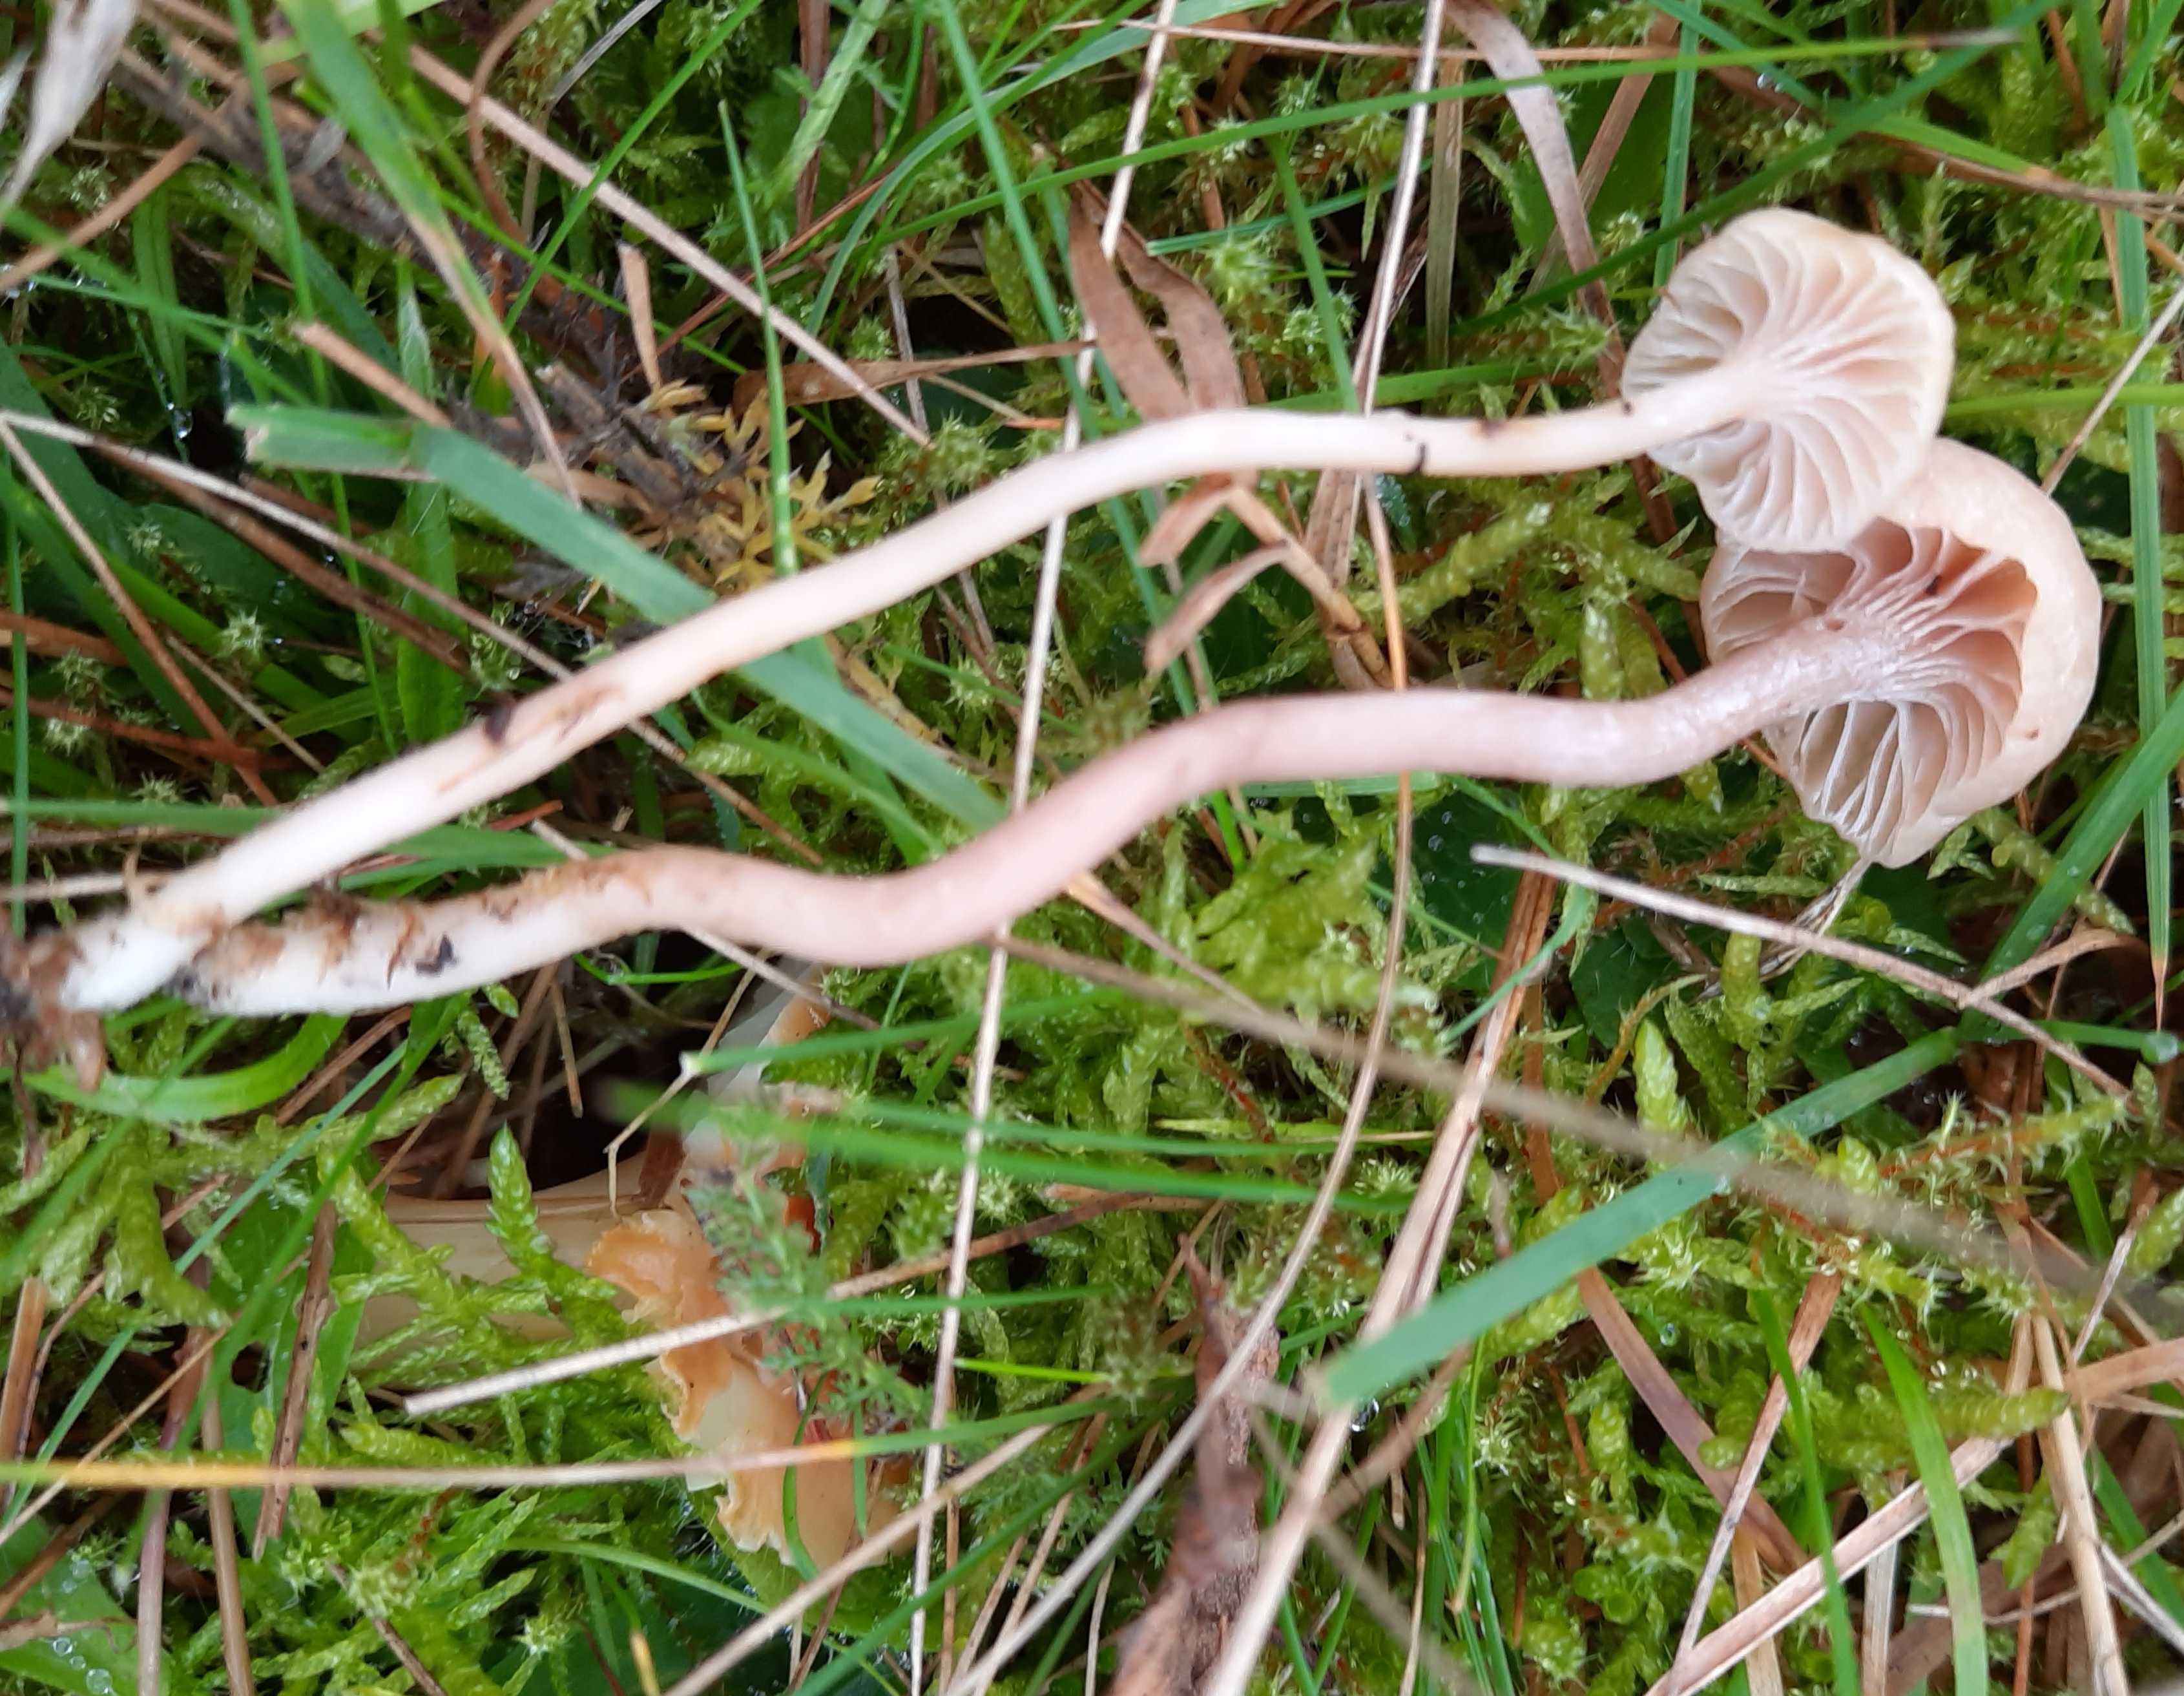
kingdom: Fungi
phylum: Basidiomycota
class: Agaricomycetes
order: Agaricales
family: Hygrophoraceae
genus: Cuphophyllus
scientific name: Cuphophyllus
